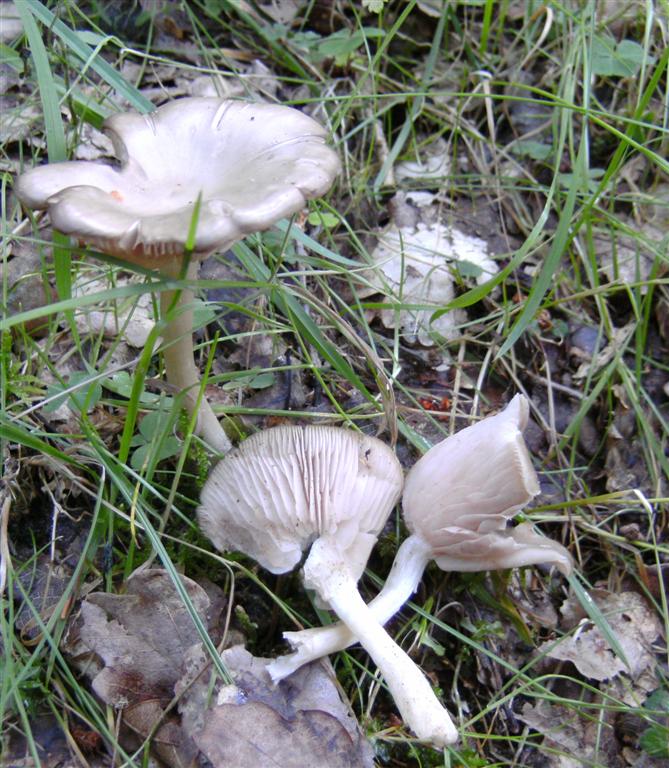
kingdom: Fungi
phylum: Basidiomycota
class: Agaricomycetes
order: Agaricales
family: Entolomataceae
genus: Entoloma
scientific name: Entoloma rhodopolium
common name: skov-rødblad
